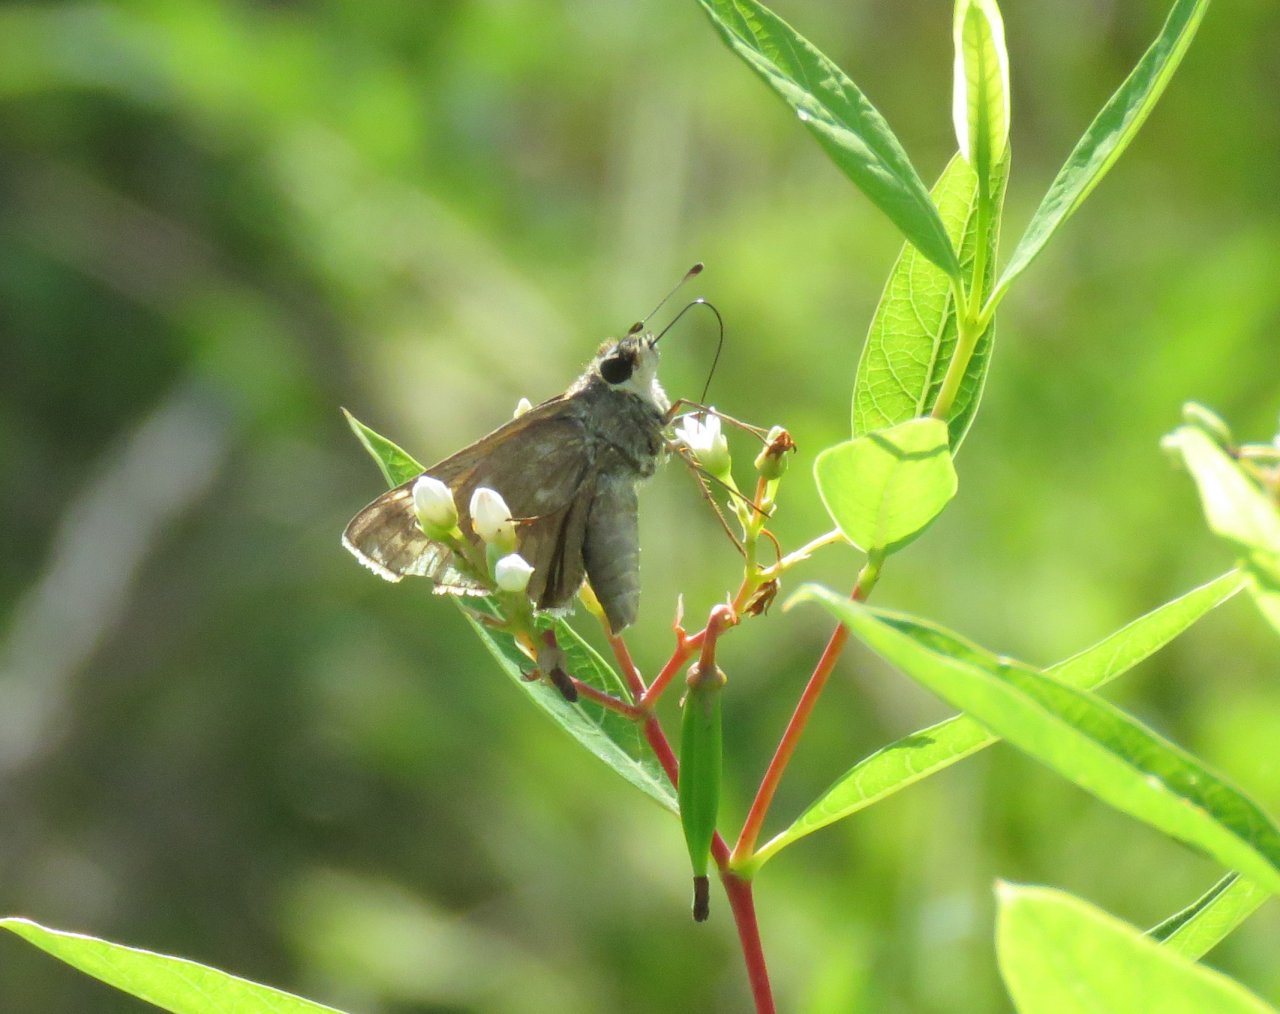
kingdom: Animalia
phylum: Arthropoda
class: Insecta
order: Lepidoptera
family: Hesperiidae
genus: Atalopedes
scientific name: Atalopedes campestris
